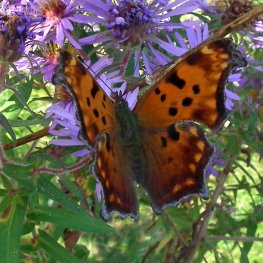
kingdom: Animalia
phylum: Arthropoda
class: Insecta
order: Lepidoptera
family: Nymphalidae
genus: Polygonia
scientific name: Polygonia comma
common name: Eastern Comma
